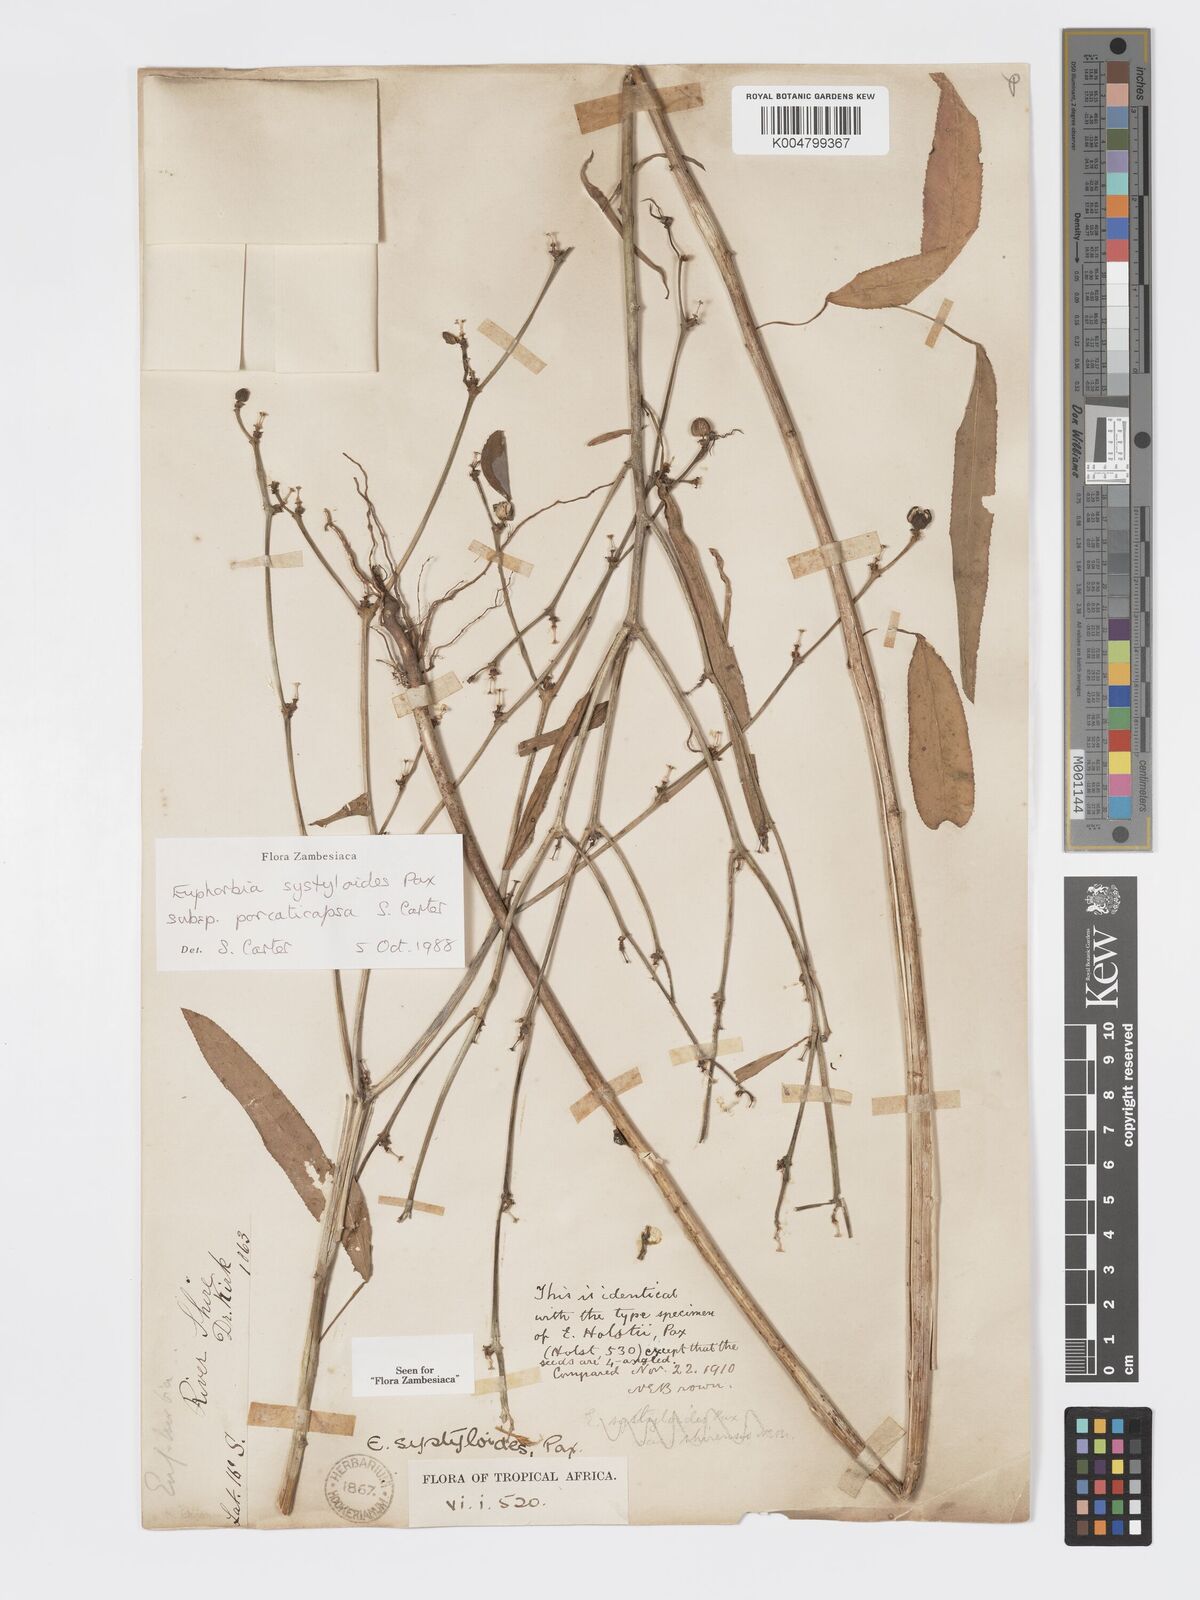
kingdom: Plantae
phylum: Tracheophyta
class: Magnoliopsida
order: Malpighiales
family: Euphorbiaceae
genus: Euphorbia
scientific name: Euphorbia systyloides
